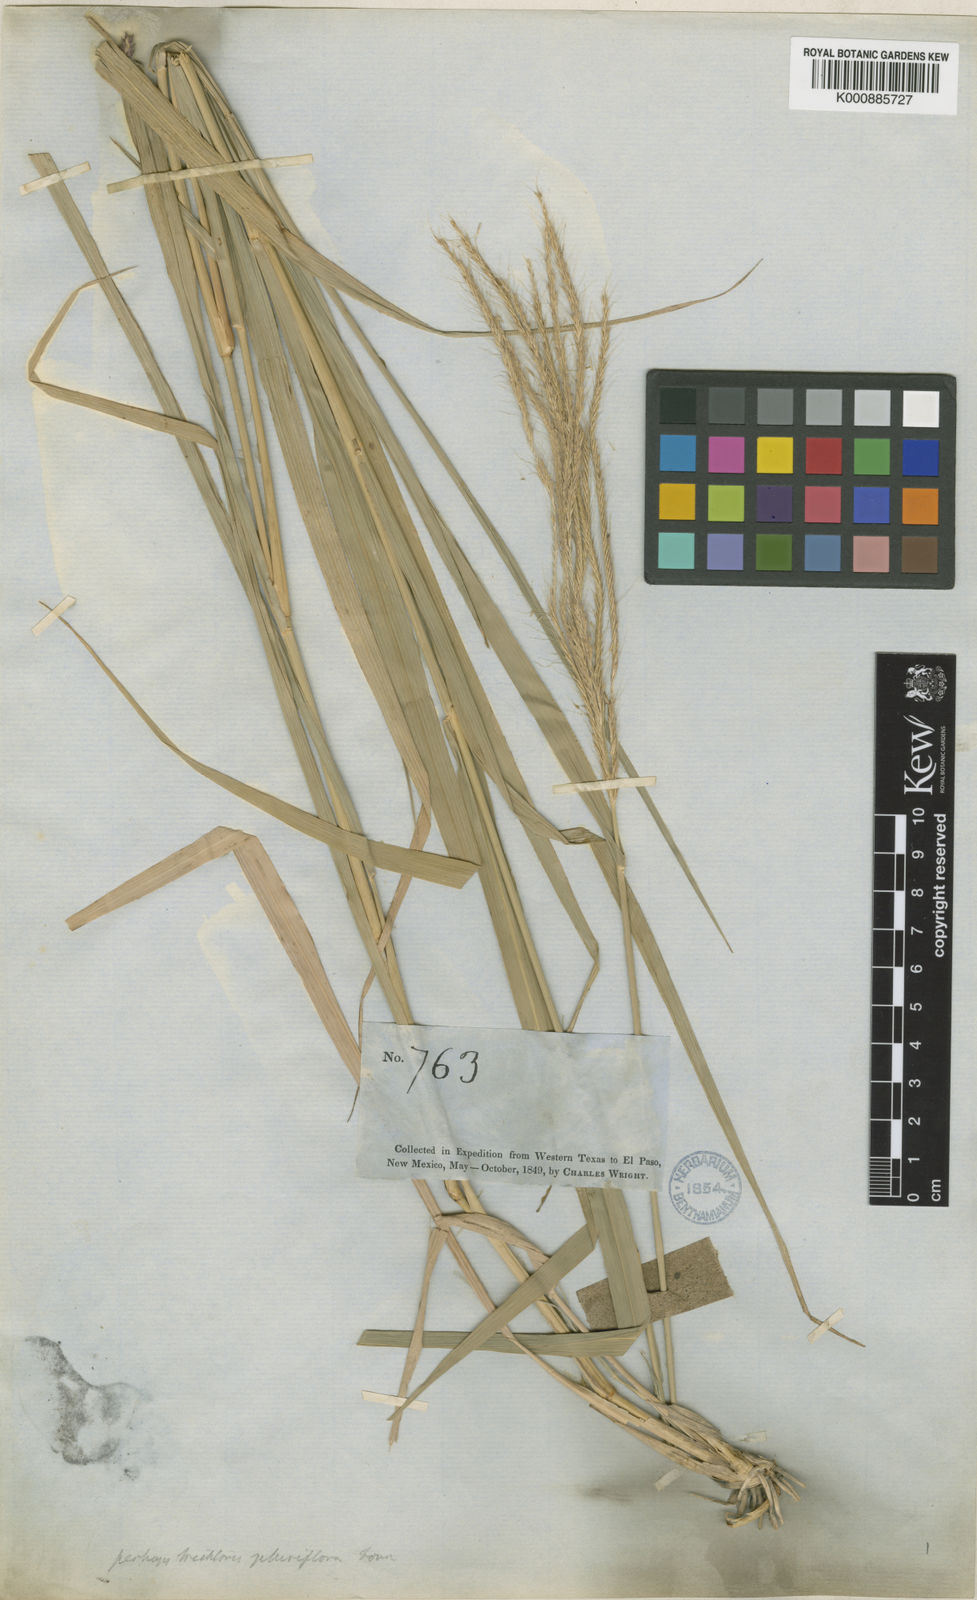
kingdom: Plantae
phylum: Tracheophyta
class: Liliopsida
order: Poales
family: Poaceae
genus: Leptochloa
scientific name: Leptochloa pluriflora
